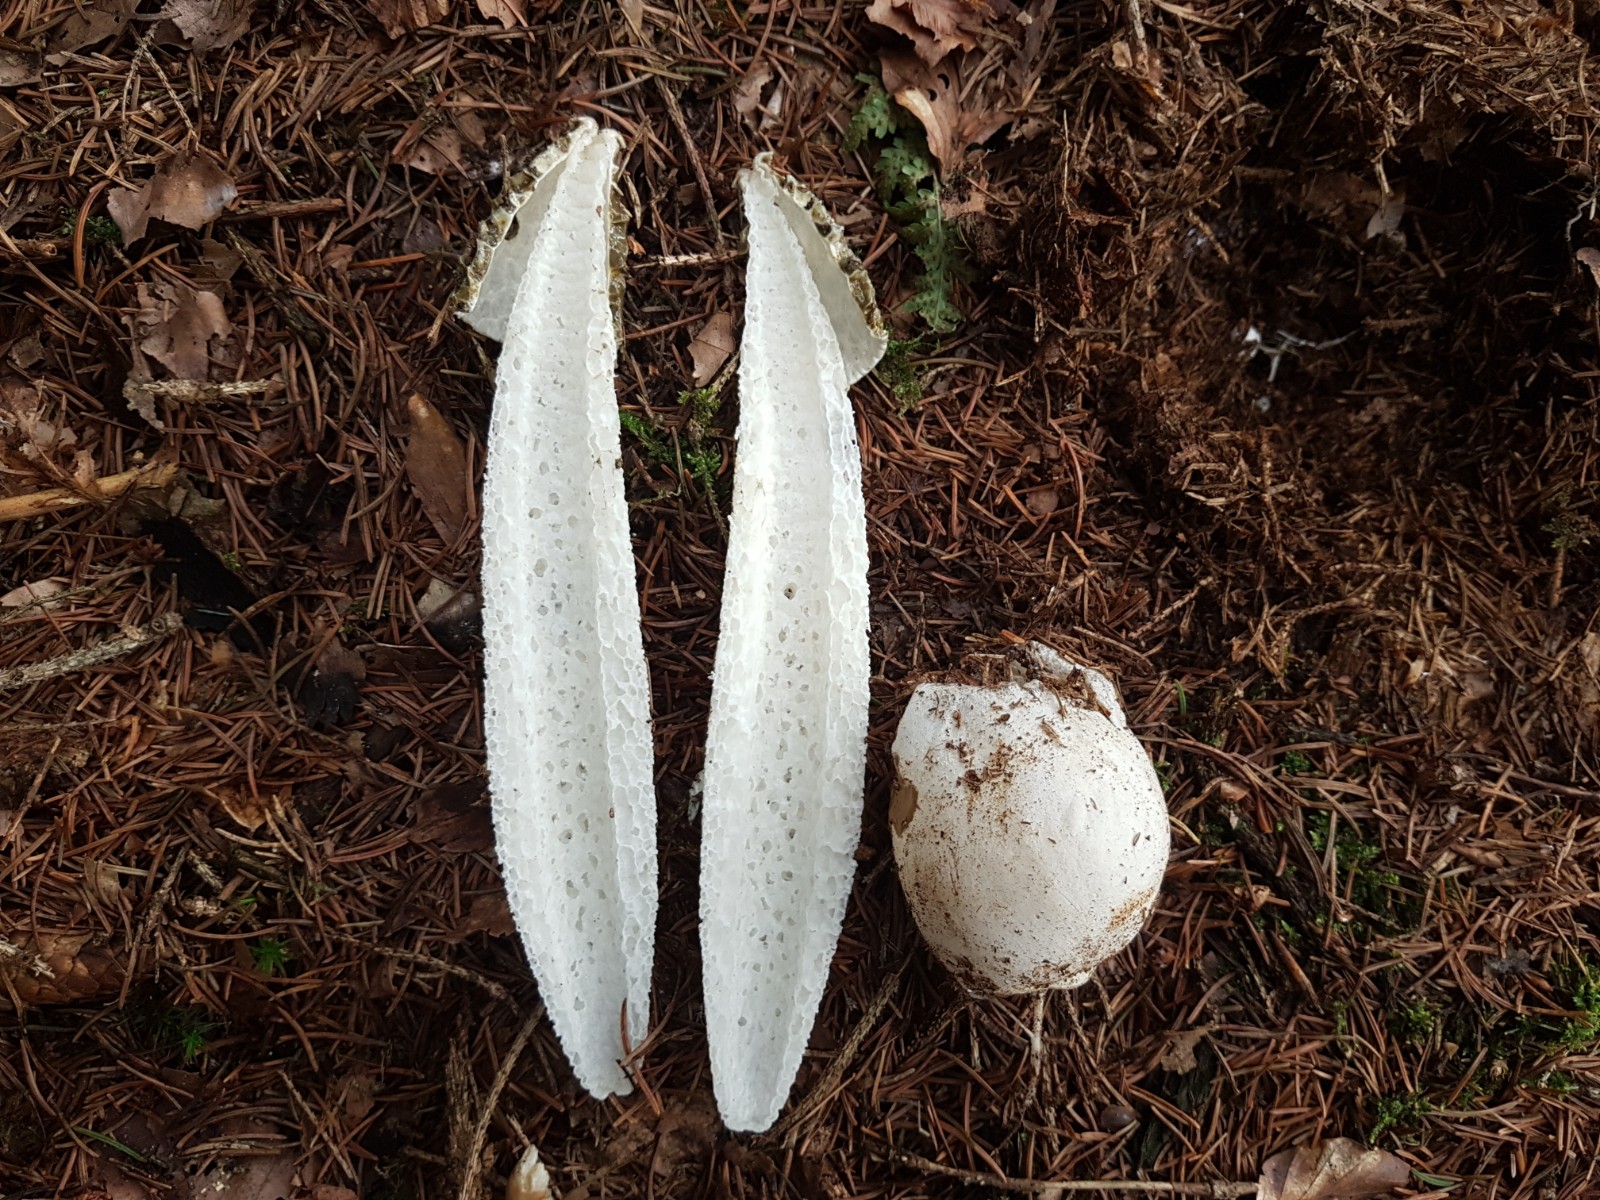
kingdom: Fungi
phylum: Basidiomycota
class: Agaricomycetes
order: Phallales
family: Phallaceae
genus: Phallus
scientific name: Phallus impudicus
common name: almindelig stinksvamp
